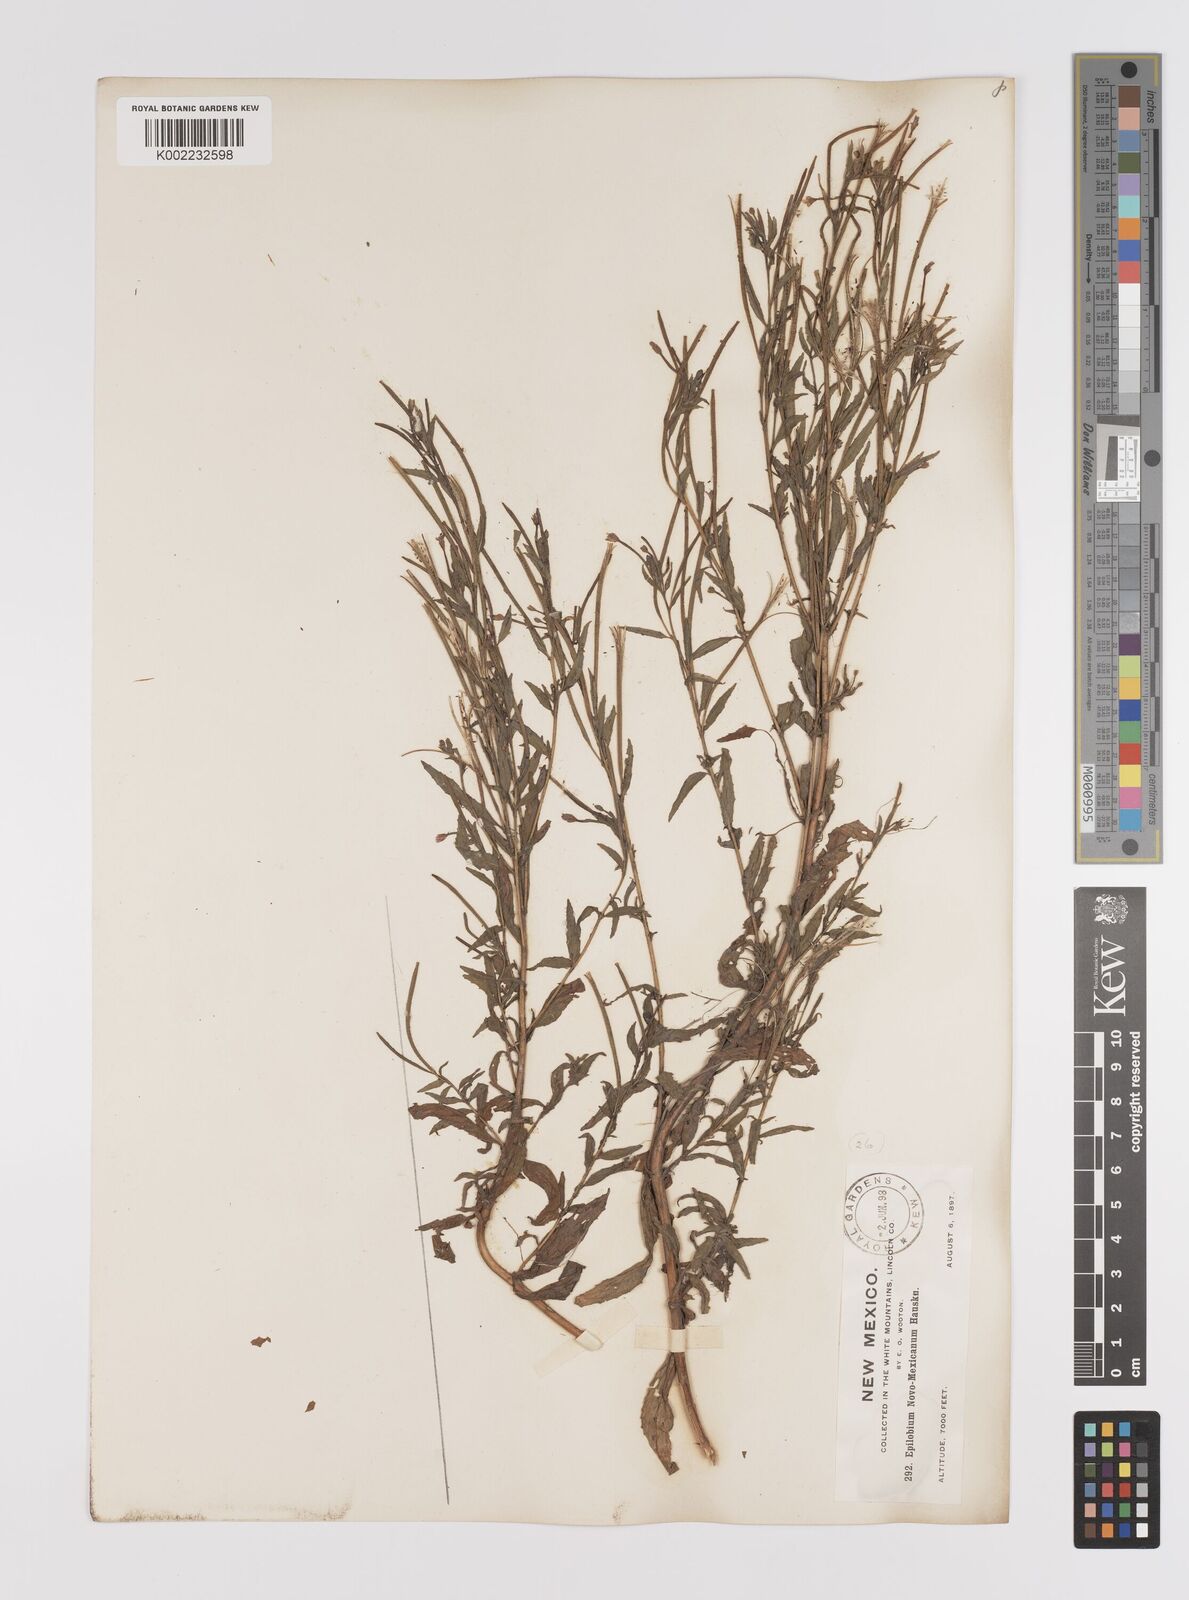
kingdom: Plantae
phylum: Tracheophyta
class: Magnoliopsida
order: Myrtales
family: Onagraceae
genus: Epilobium
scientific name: Epilobium ciliatum
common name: American willowherb
